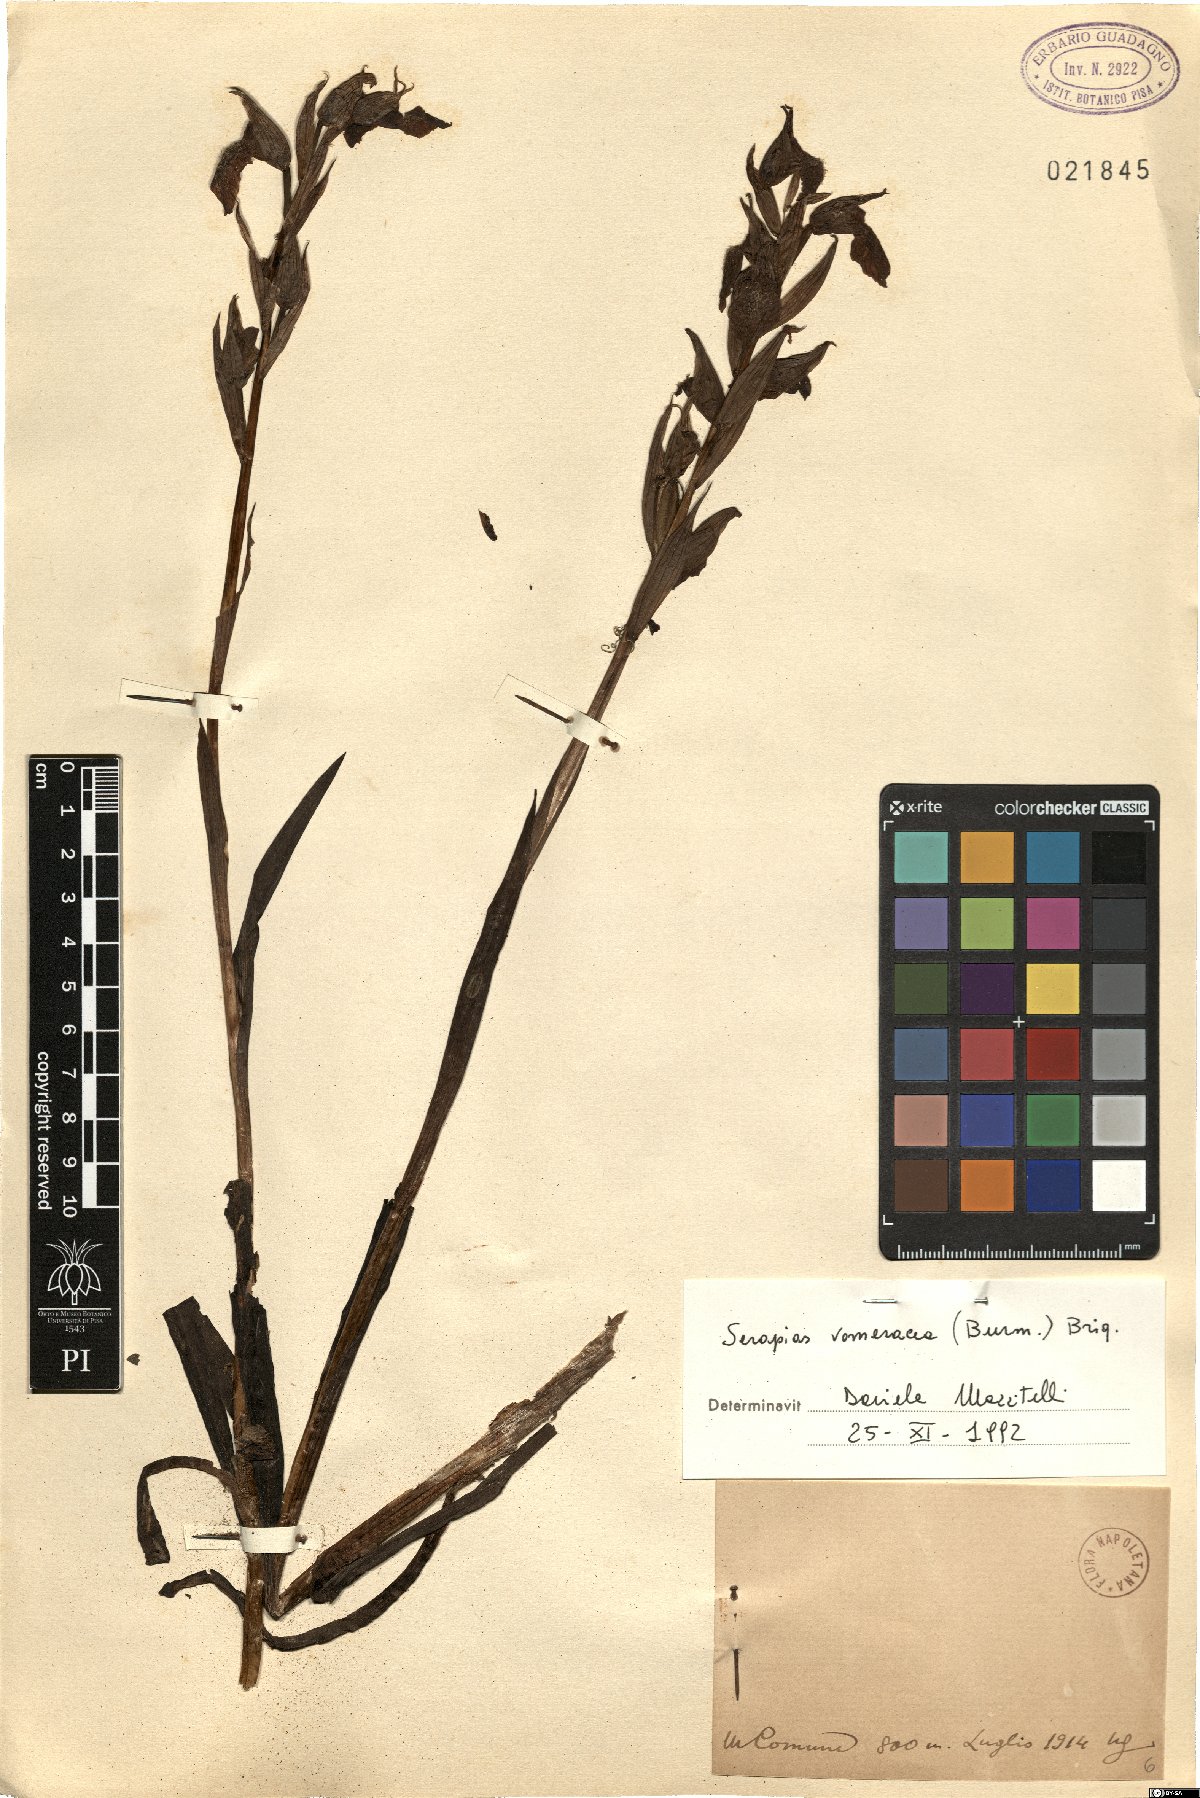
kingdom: Plantae
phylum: Tracheophyta
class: Liliopsida
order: Asparagales
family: Orchidaceae
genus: Serapias
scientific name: Serapias vomeracea
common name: Long-lipped tongue-orchid
